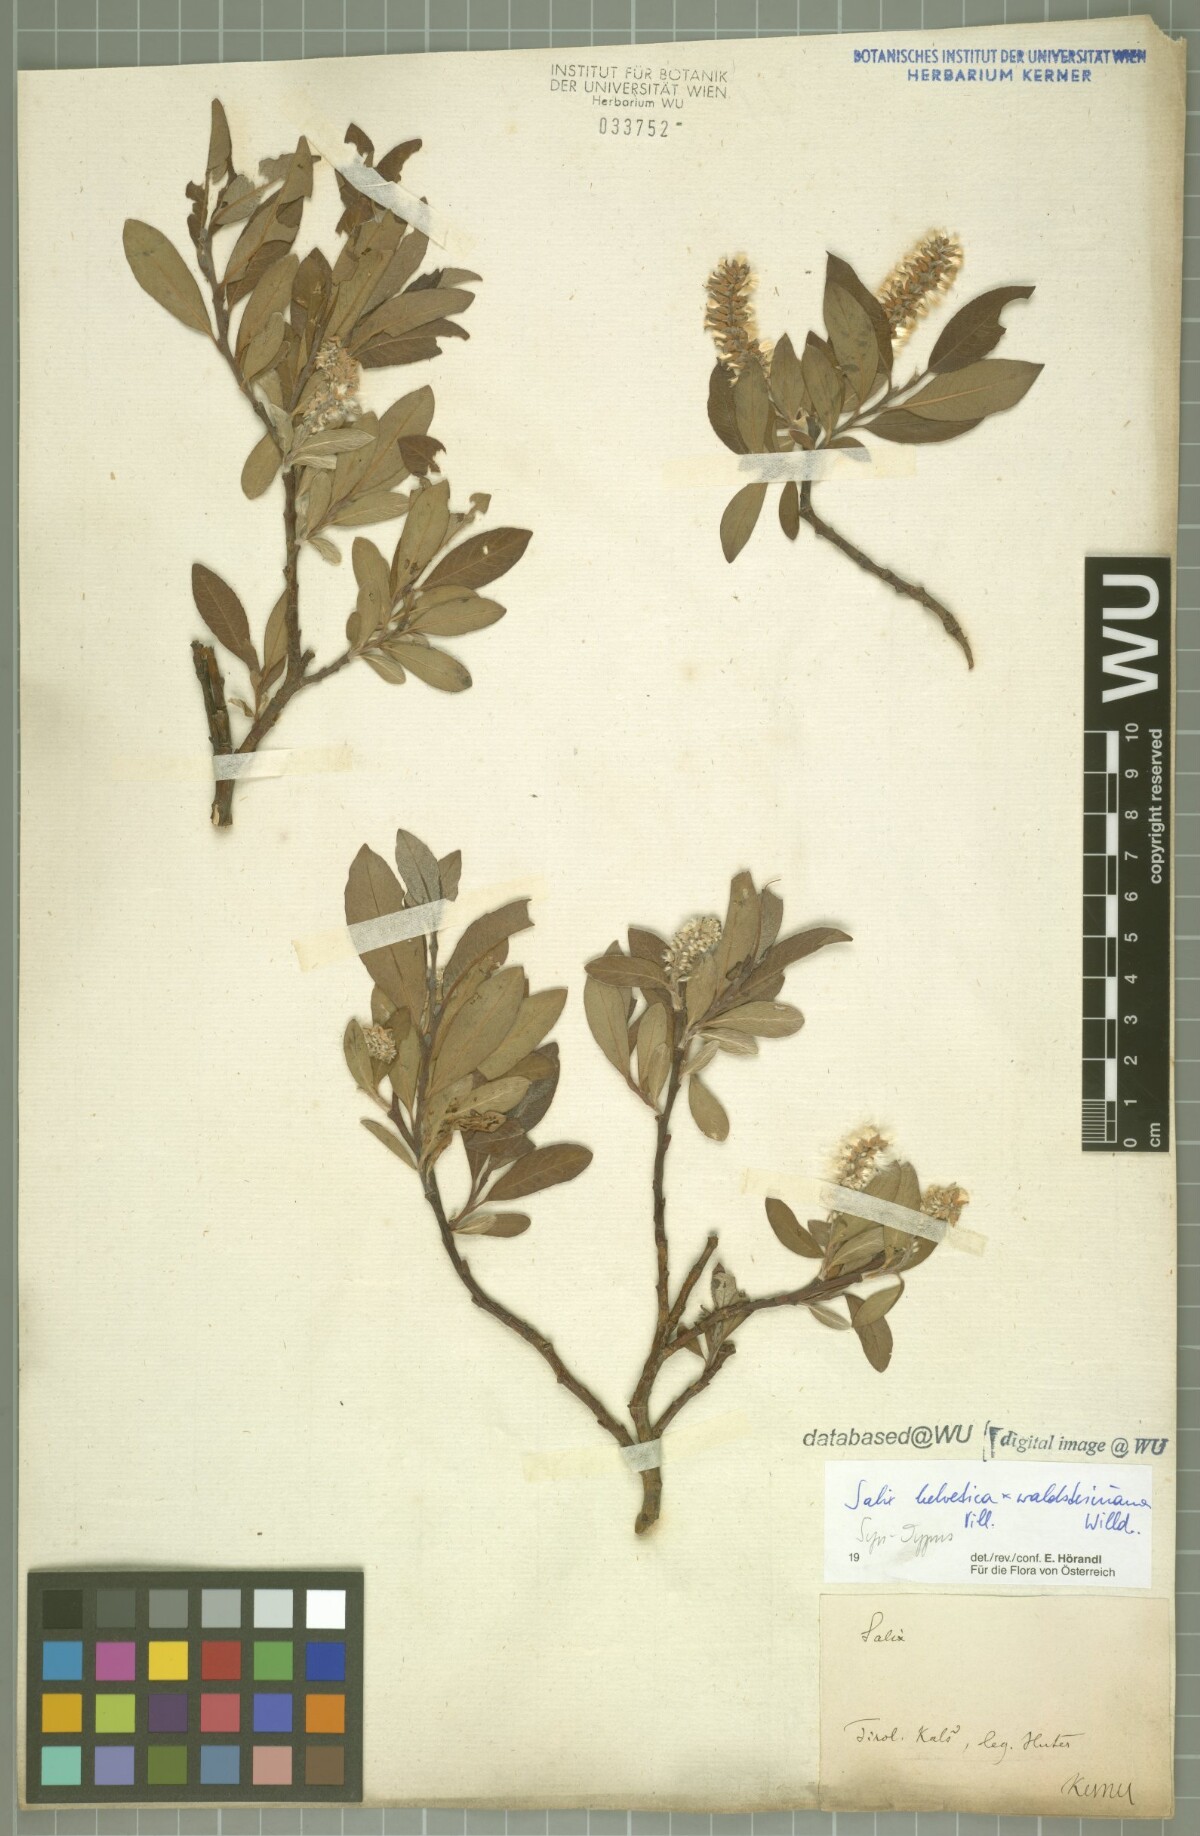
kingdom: Plantae
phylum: Tracheophyta
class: Magnoliopsida
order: Malpighiales
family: Salicaceae
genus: Salix
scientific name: Salix lapponum
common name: Downy willow
